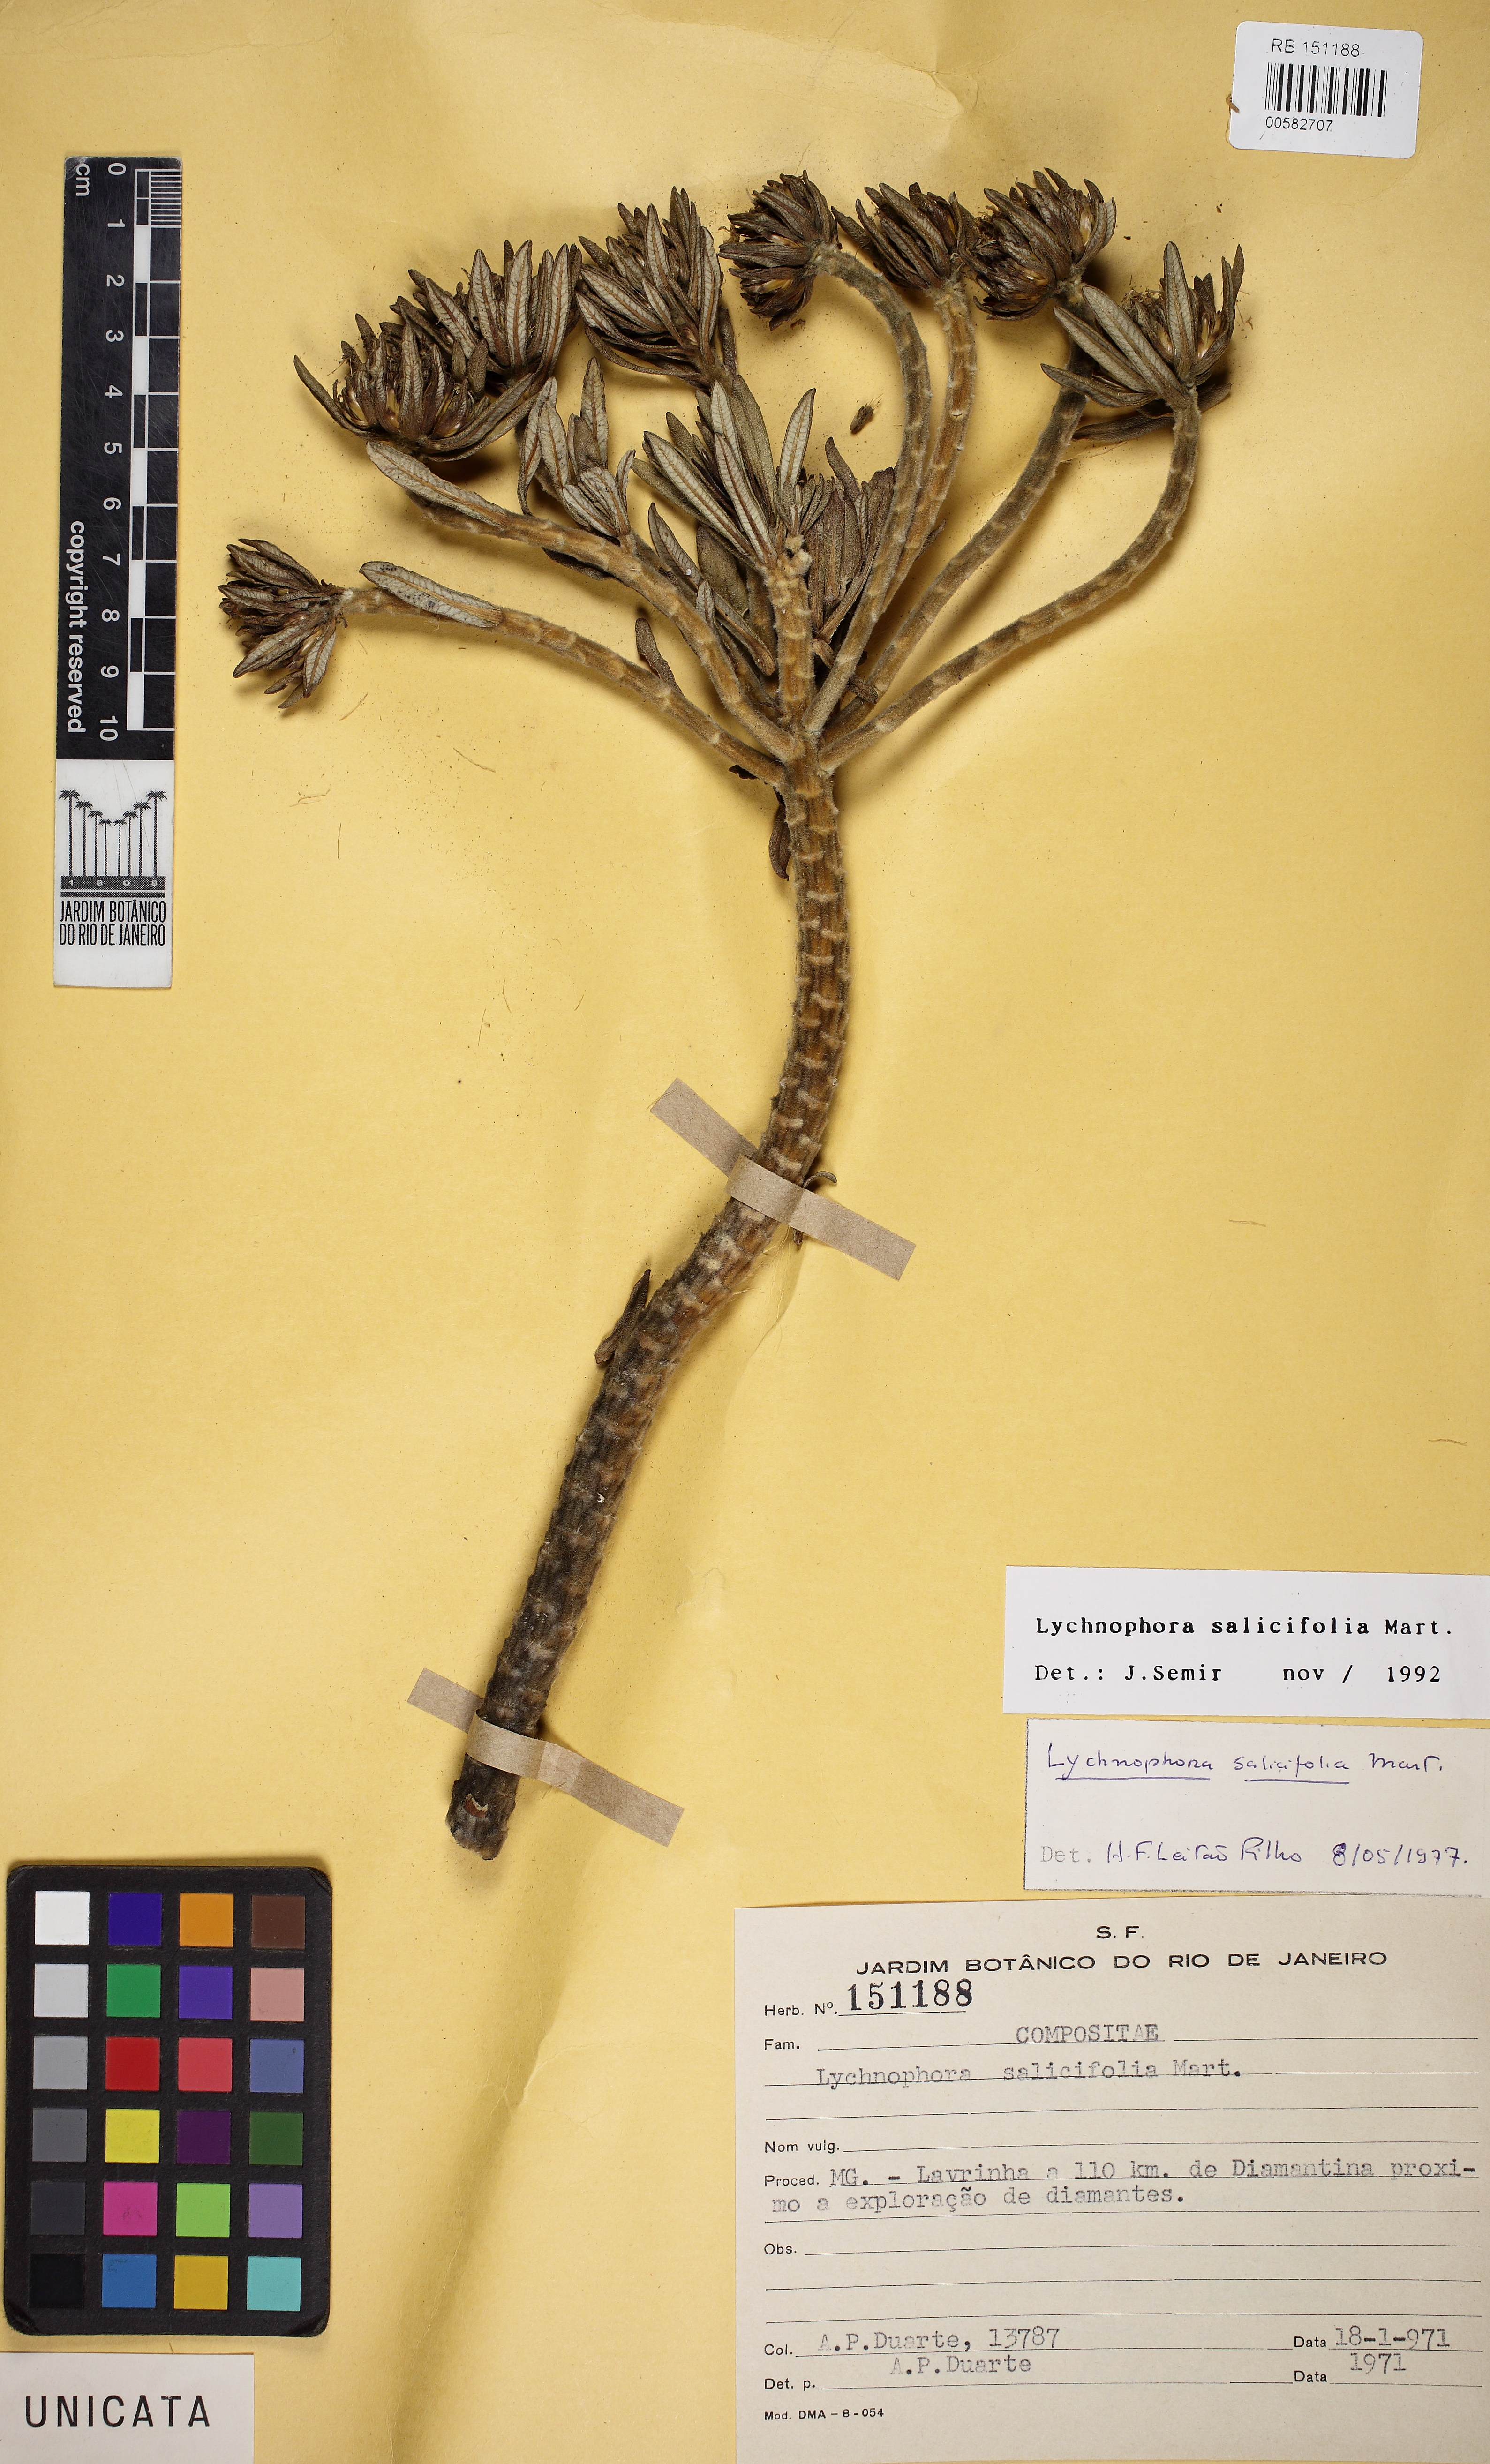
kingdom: Plantae
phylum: Tracheophyta
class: Magnoliopsida
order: Asterales
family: Asteraceae
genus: Lychnophora
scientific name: Lychnophora salicifolia
